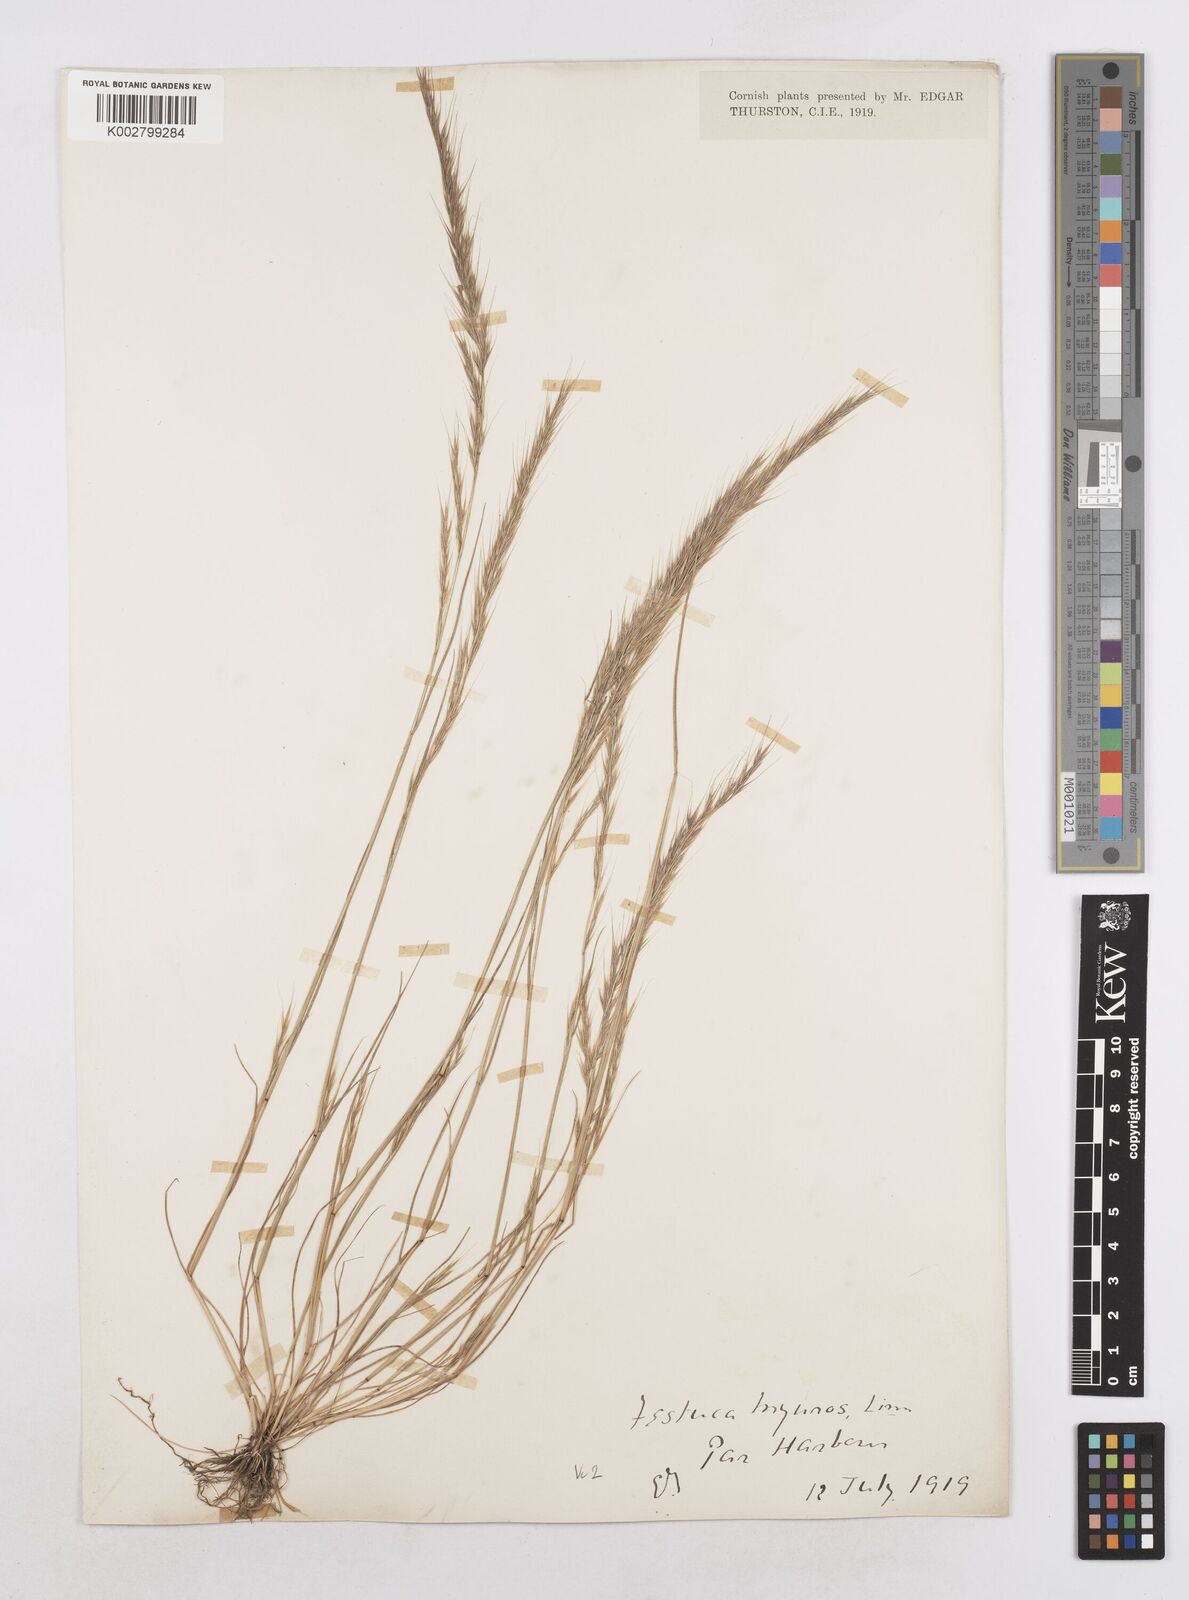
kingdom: Plantae
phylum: Tracheophyta
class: Liliopsida
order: Poales
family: Poaceae
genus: Festuca
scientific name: Festuca myuros
